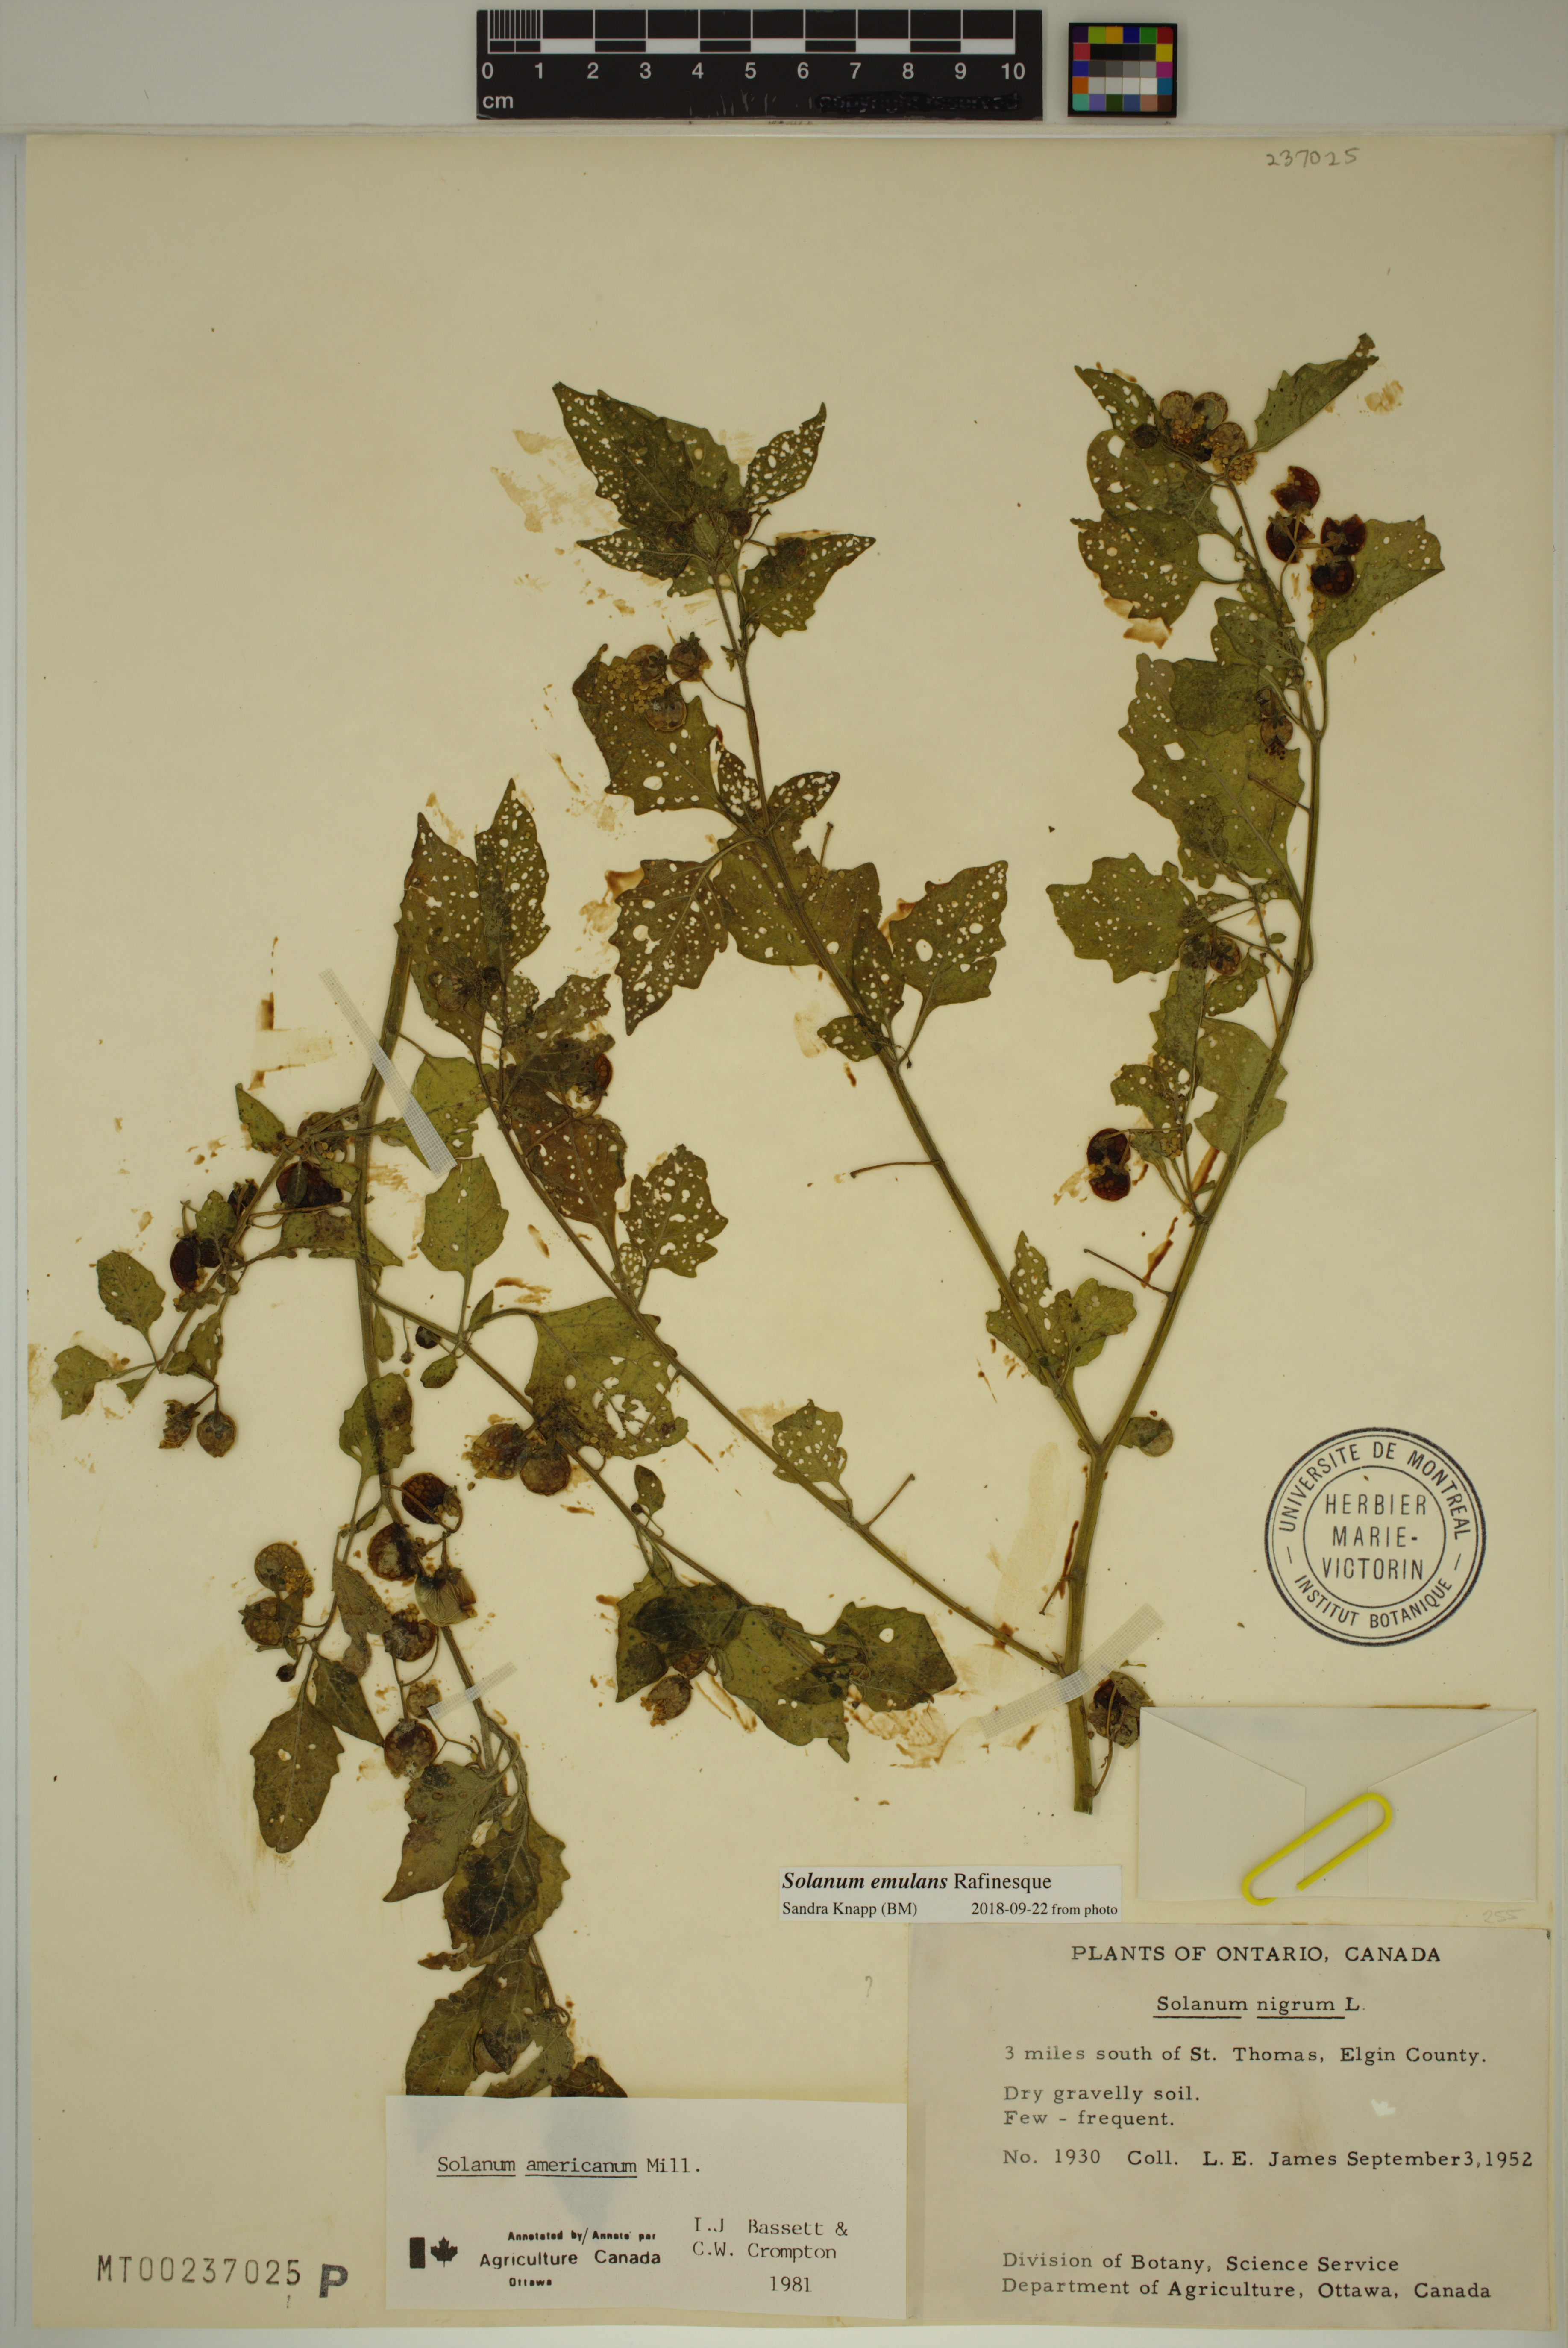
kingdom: Plantae
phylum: Tracheophyta
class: Magnoliopsida
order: Solanales
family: Solanaceae
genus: Solanum
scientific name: Solanum emulans
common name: Eastern black nightshade
